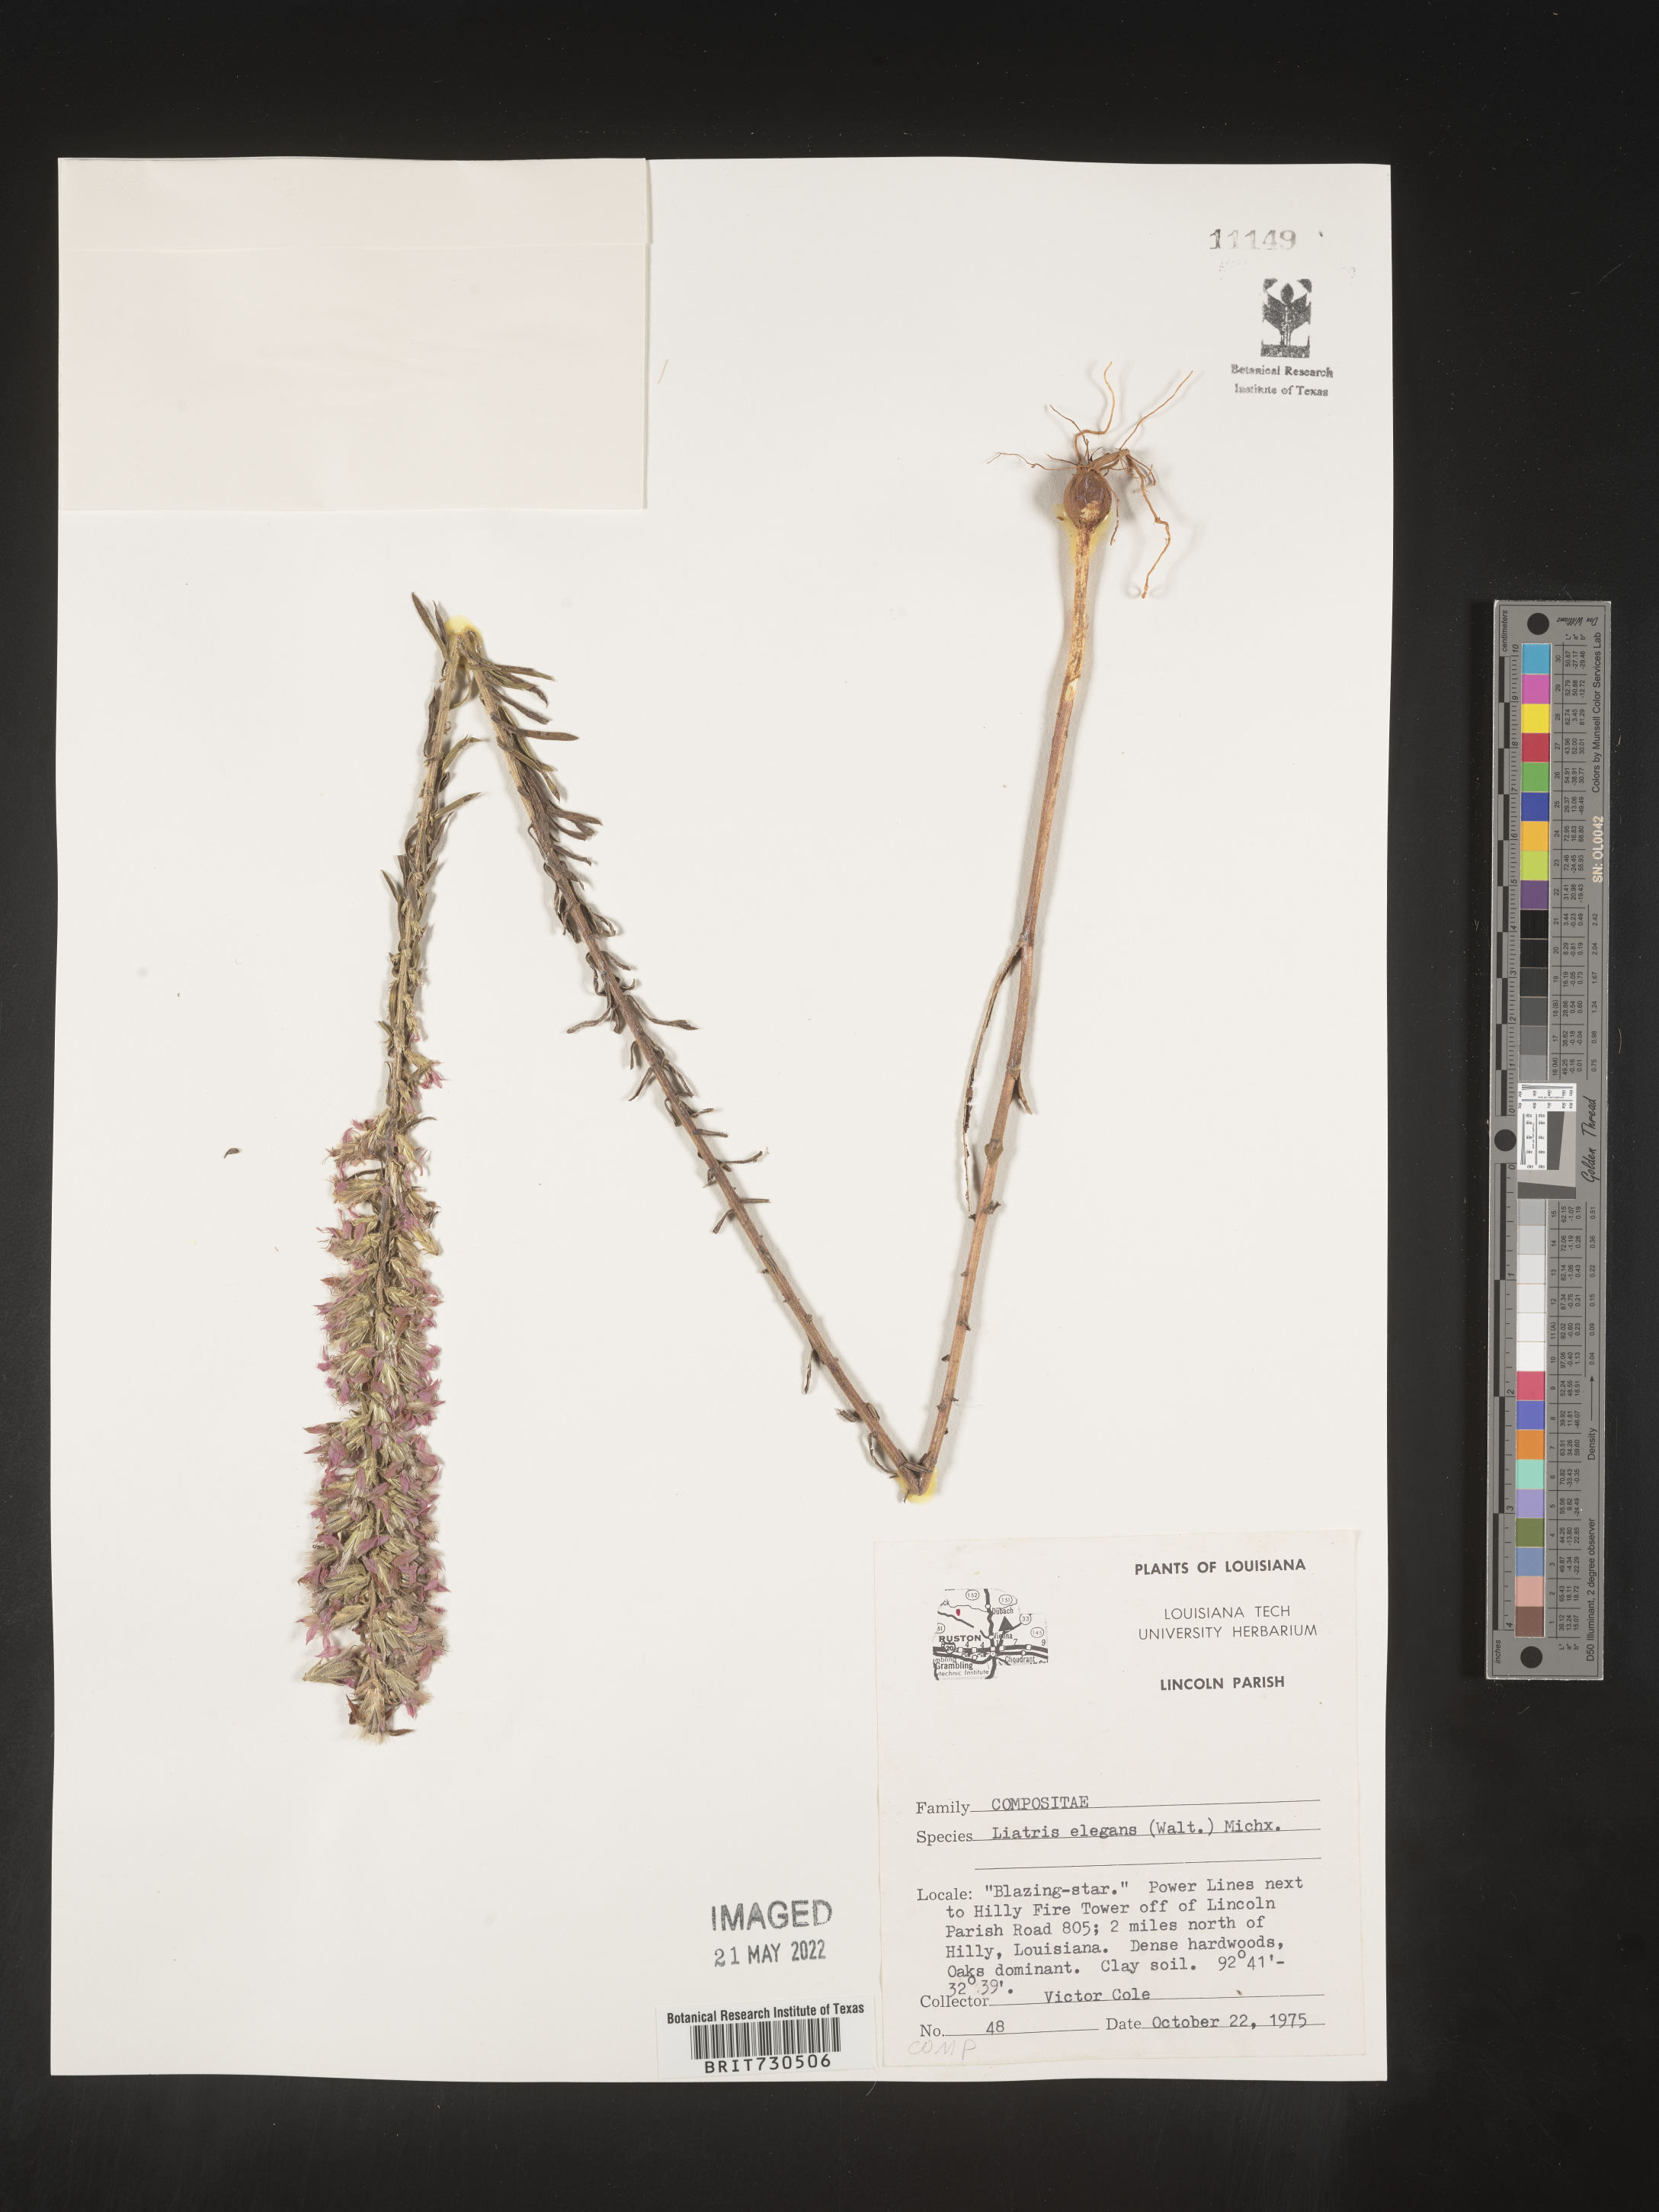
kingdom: Plantae
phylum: Tracheophyta
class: Magnoliopsida
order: Asterales
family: Asteraceae
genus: Liatris
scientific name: Liatris elegans
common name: Pinkscale gayfeather
